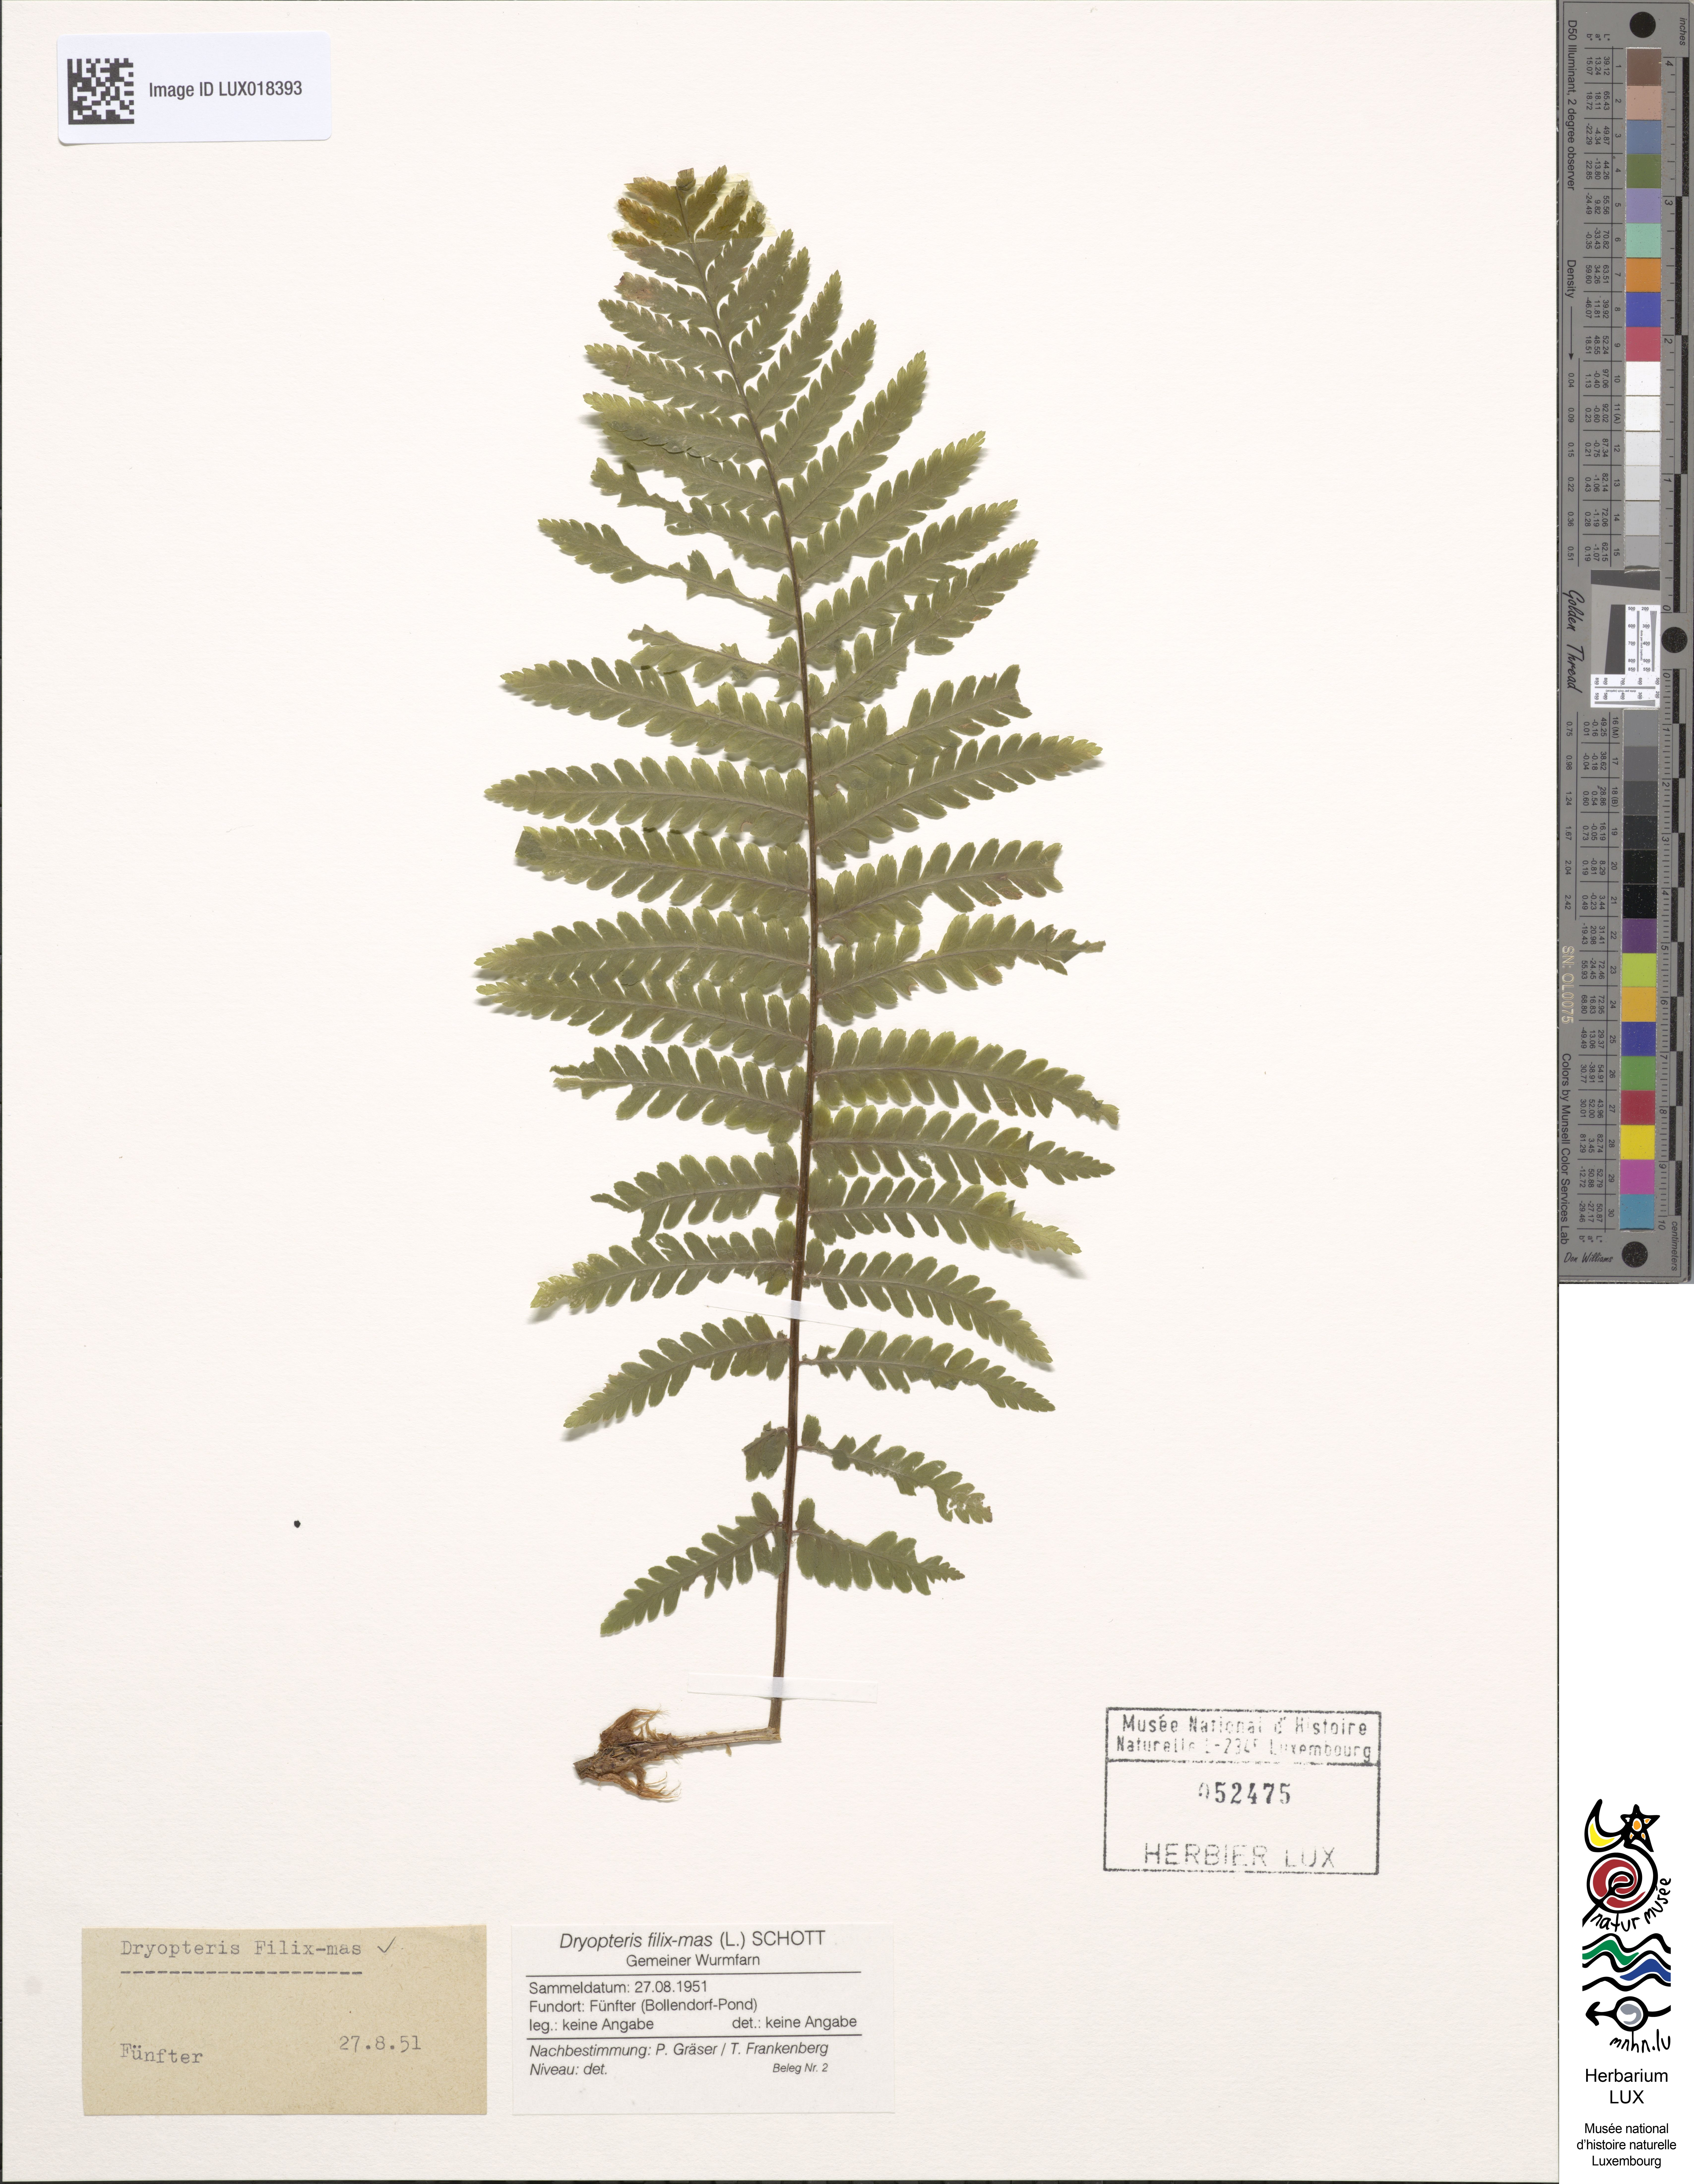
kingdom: Plantae
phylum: Tracheophyta
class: Polypodiopsida
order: Polypodiales
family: Dryopteridaceae
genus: Dryopteris
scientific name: Dryopteris filix-mas
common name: Male fern
